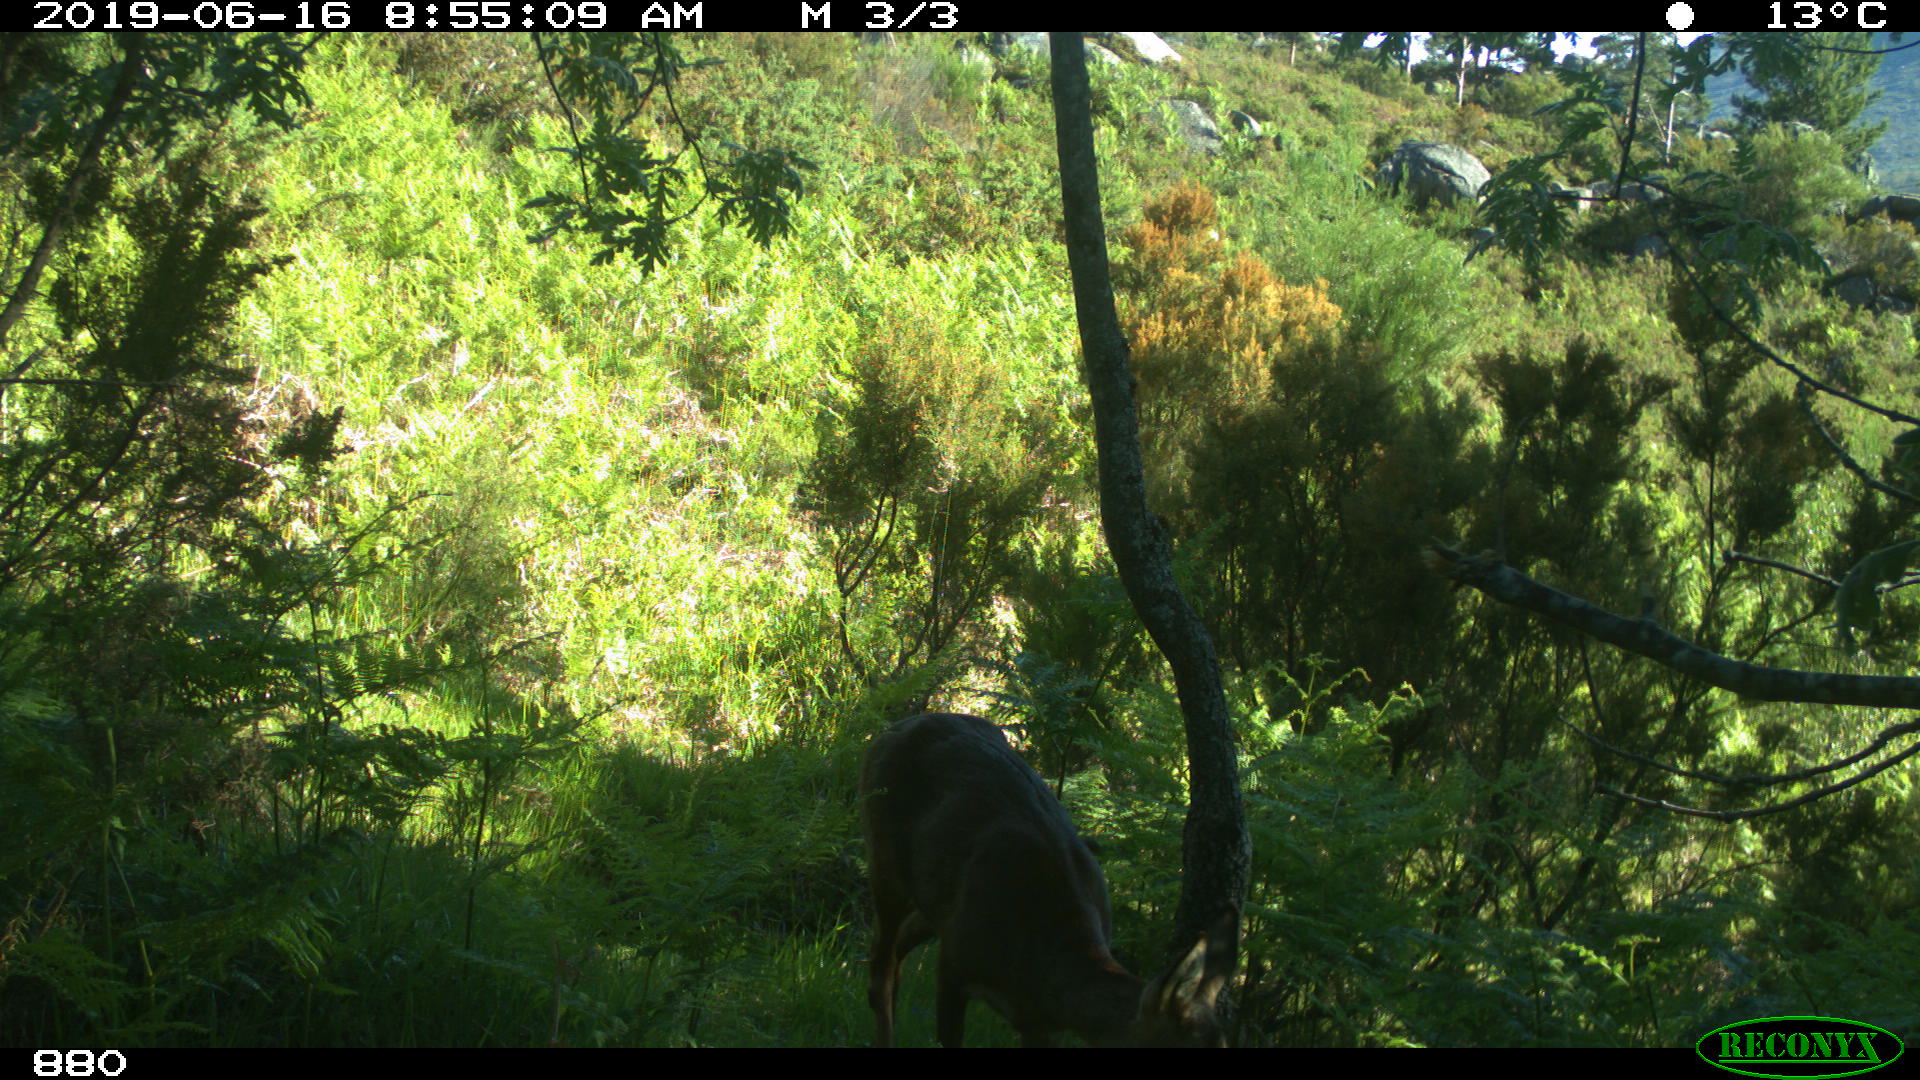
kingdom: Animalia
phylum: Chordata
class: Mammalia
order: Artiodactyla
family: Cervidae
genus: Capreolus
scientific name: Capreolus capreolus
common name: Western roe deer
